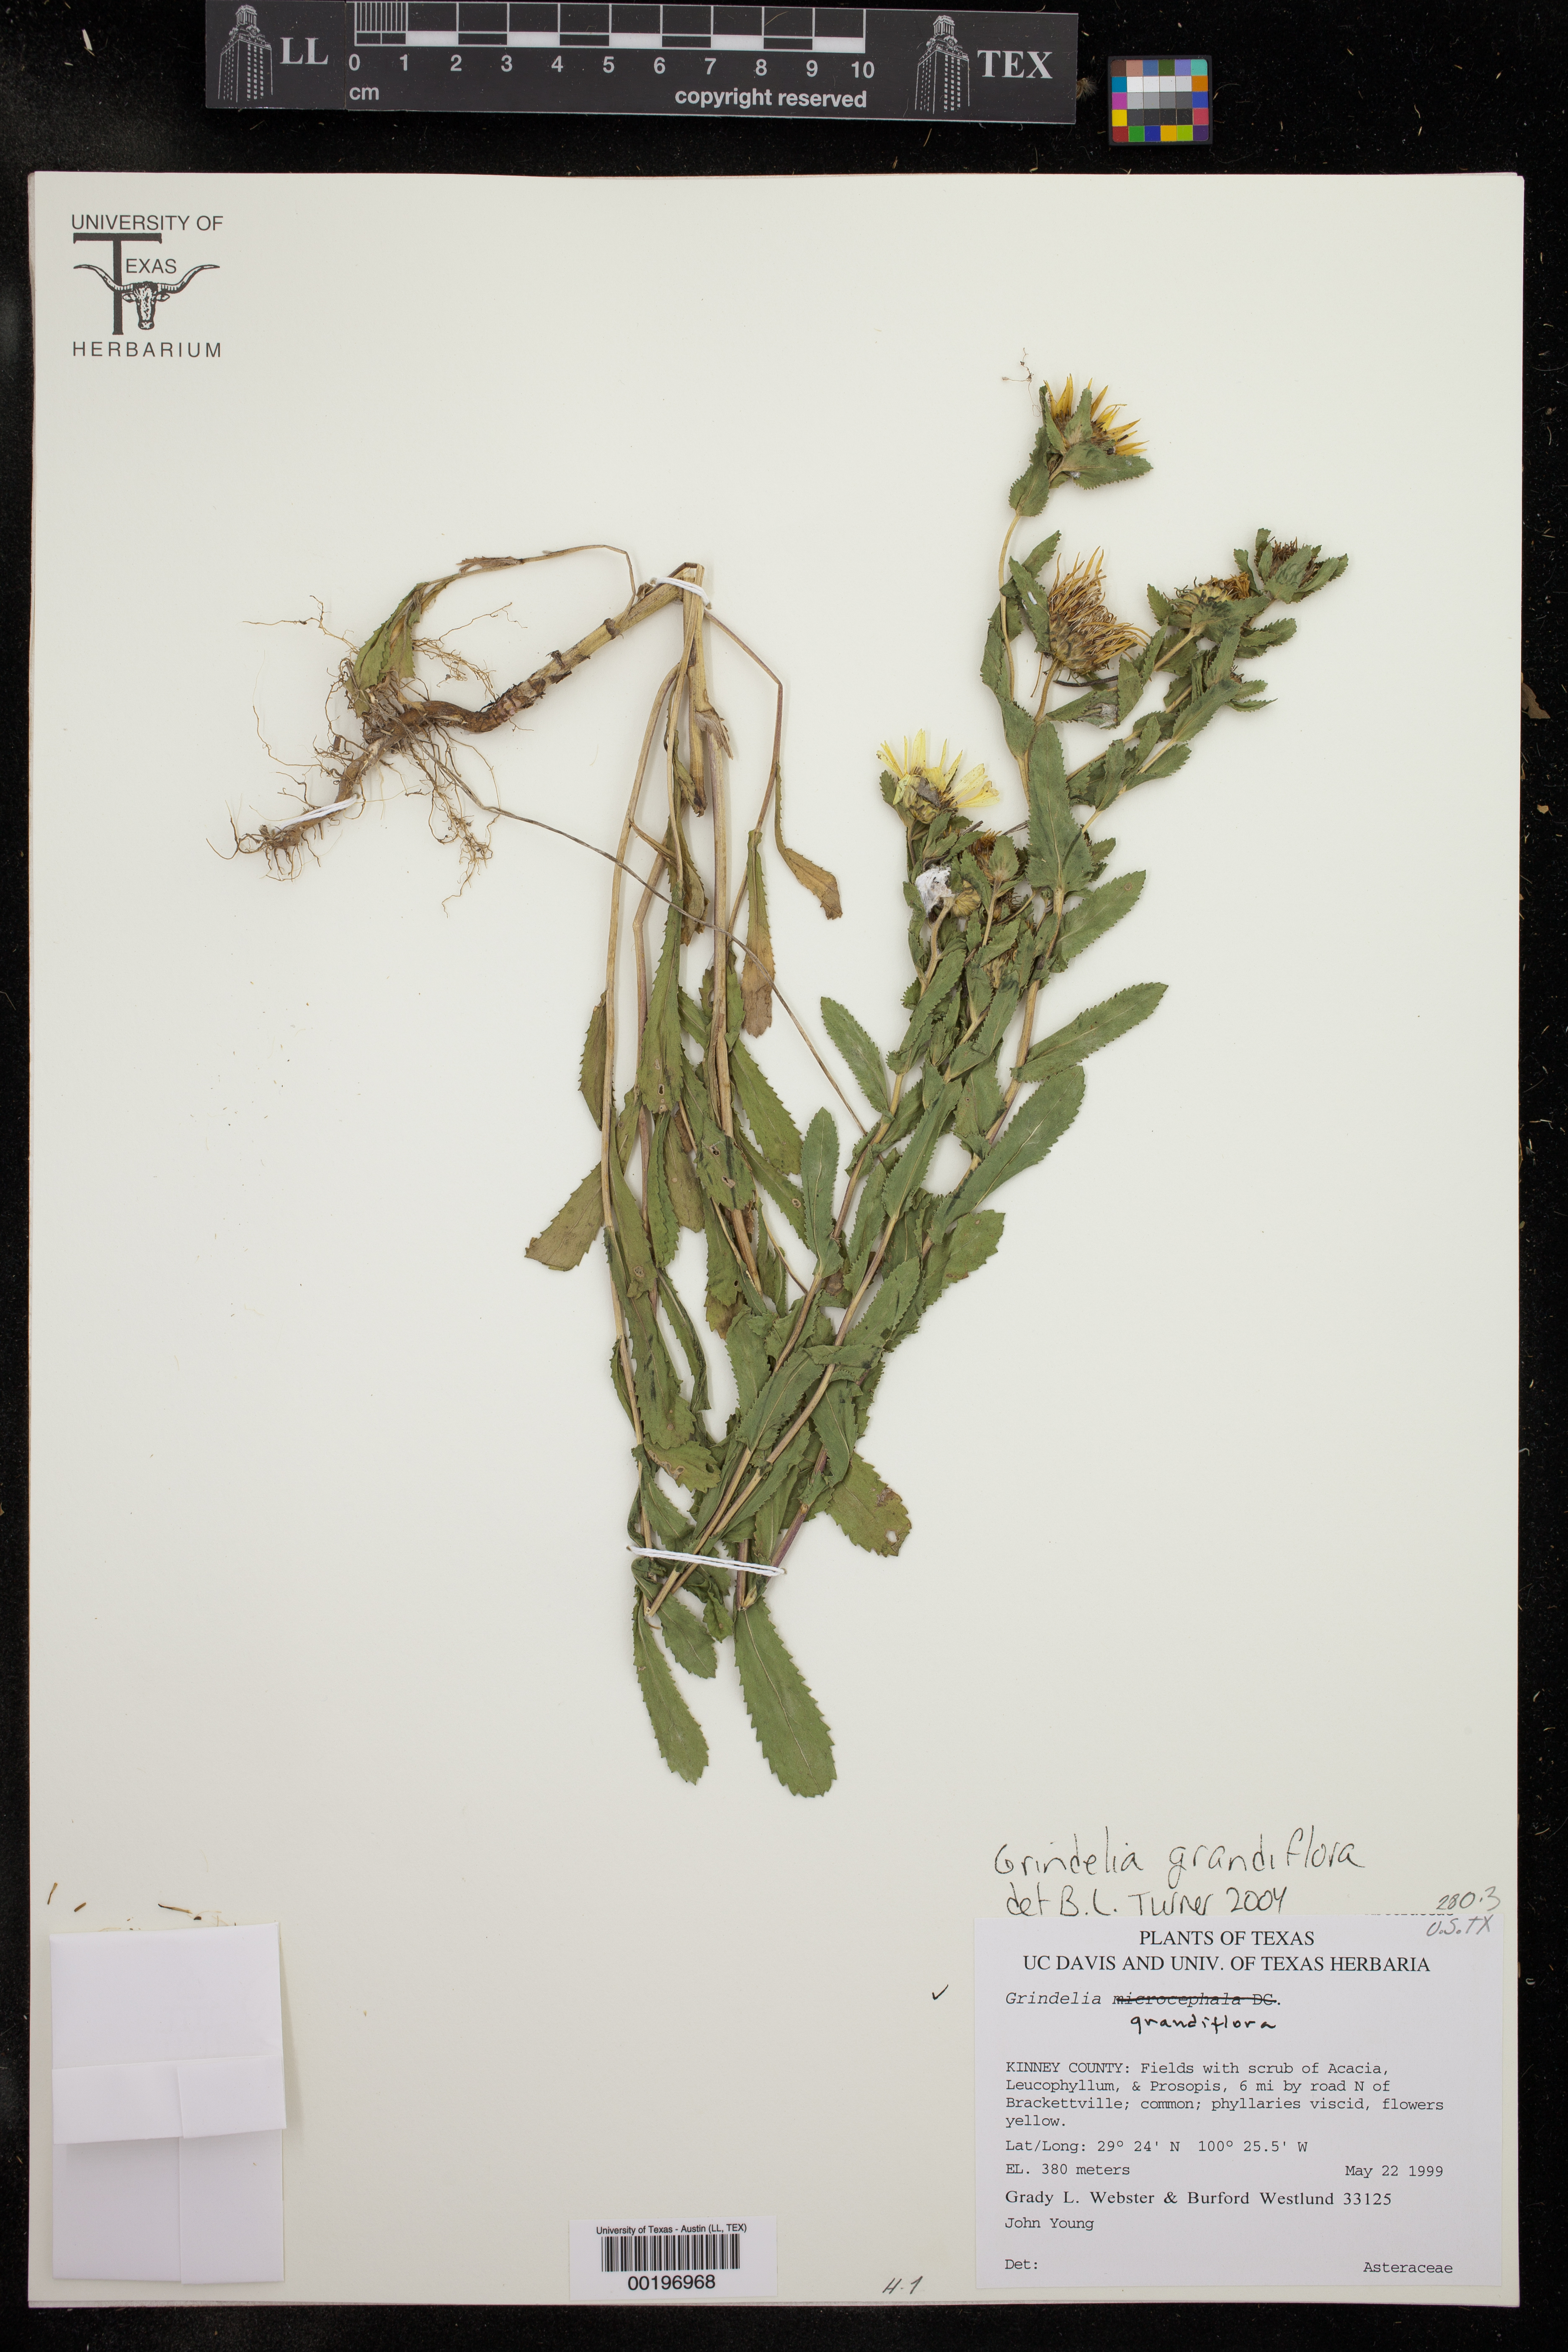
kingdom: Plantae
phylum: Tracheophyta
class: Magnoliopsida
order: Asterales
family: Asteraceae
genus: Grindelia
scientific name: Grindelia grandiflora
